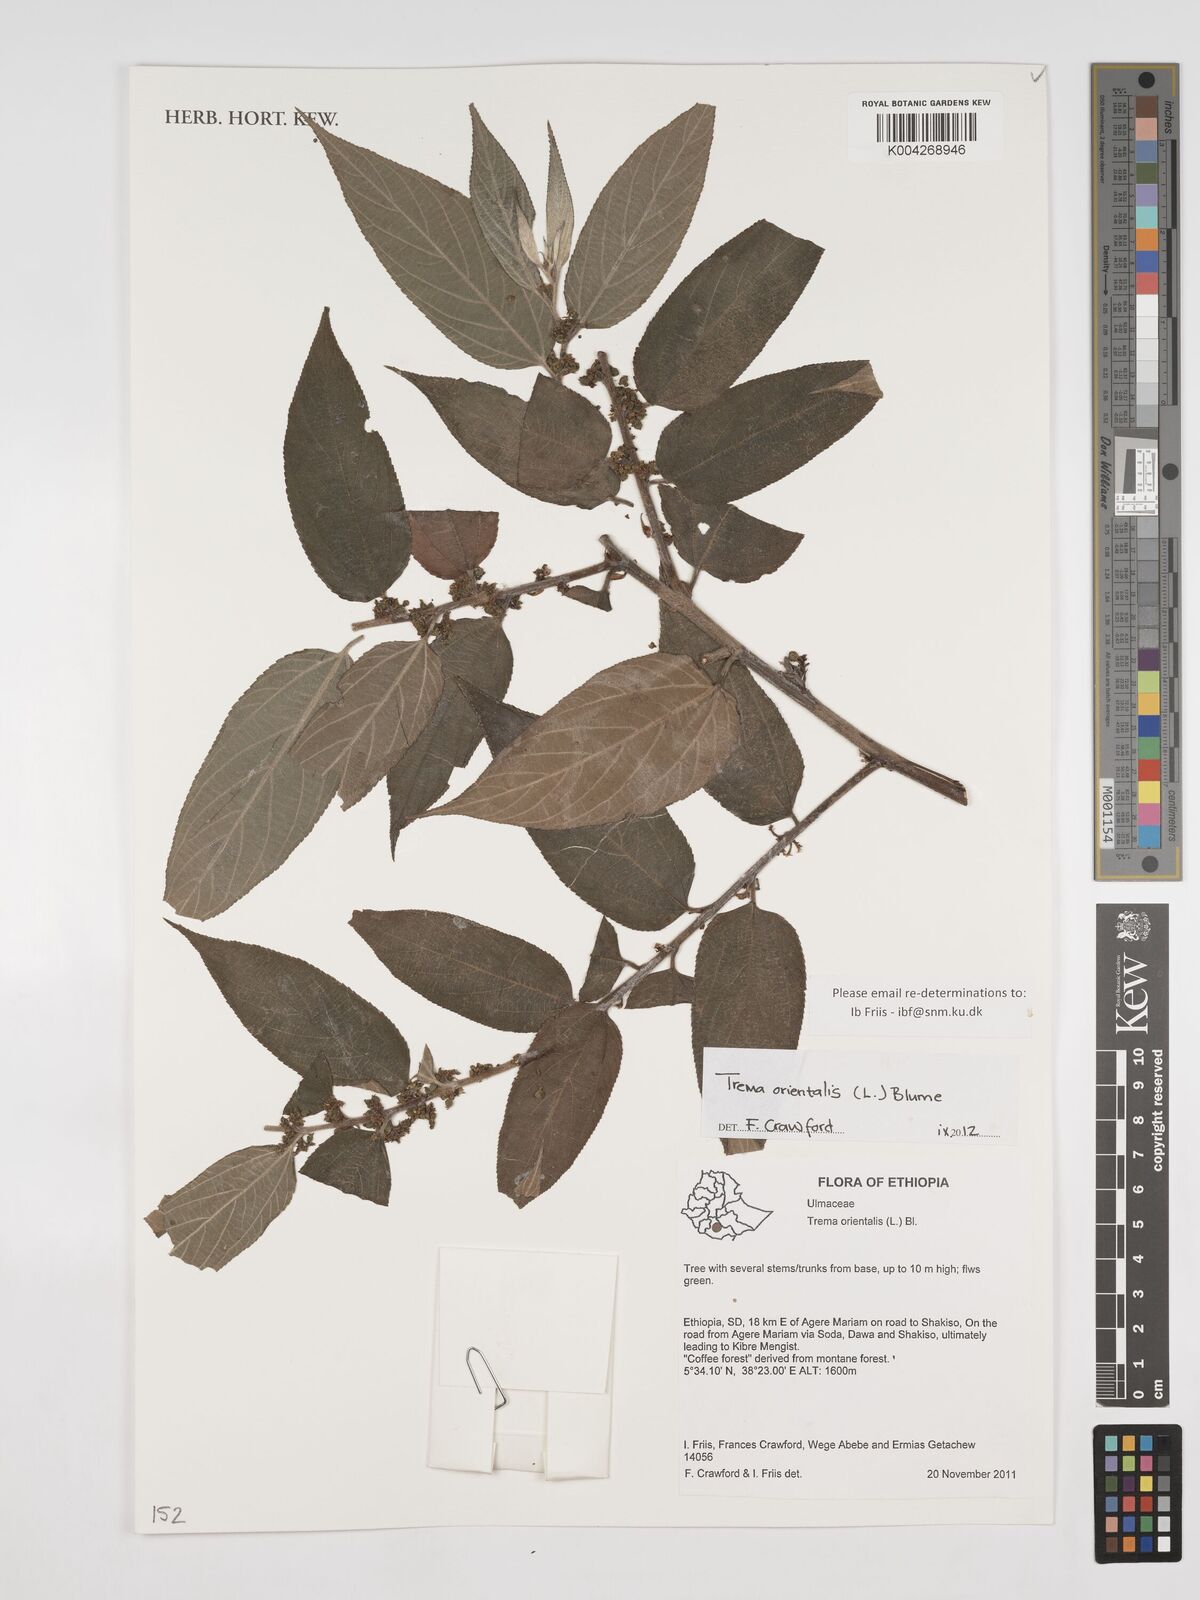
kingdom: Plantae
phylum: Tracheophyta
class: Magnoliopsida
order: Rosales
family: Cannabaceae
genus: Trema
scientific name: Trema orientale
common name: Indian charcoal tree
